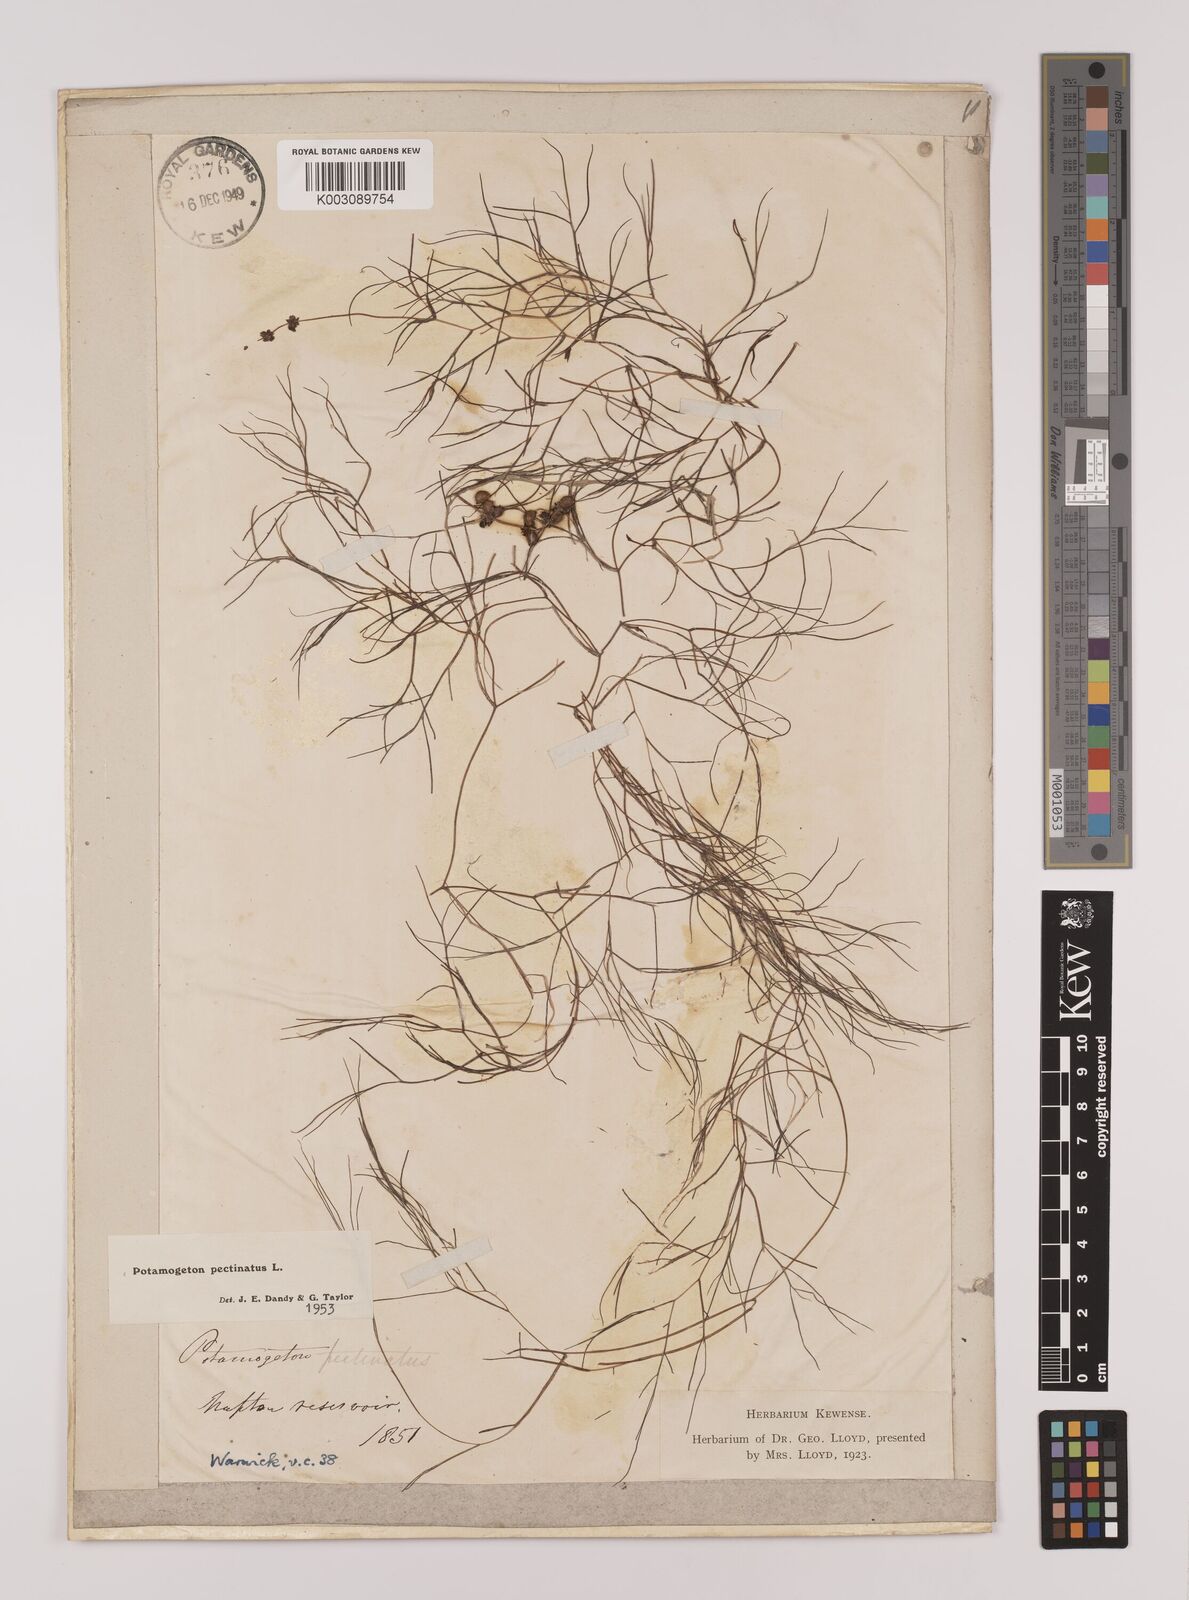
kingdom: Plantae
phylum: Tracheophyta
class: Liliopsida
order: Alismatales
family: Potamogetonaceae
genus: Stuckenia
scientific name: Stuckenia pectinata
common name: Sago pondweed
